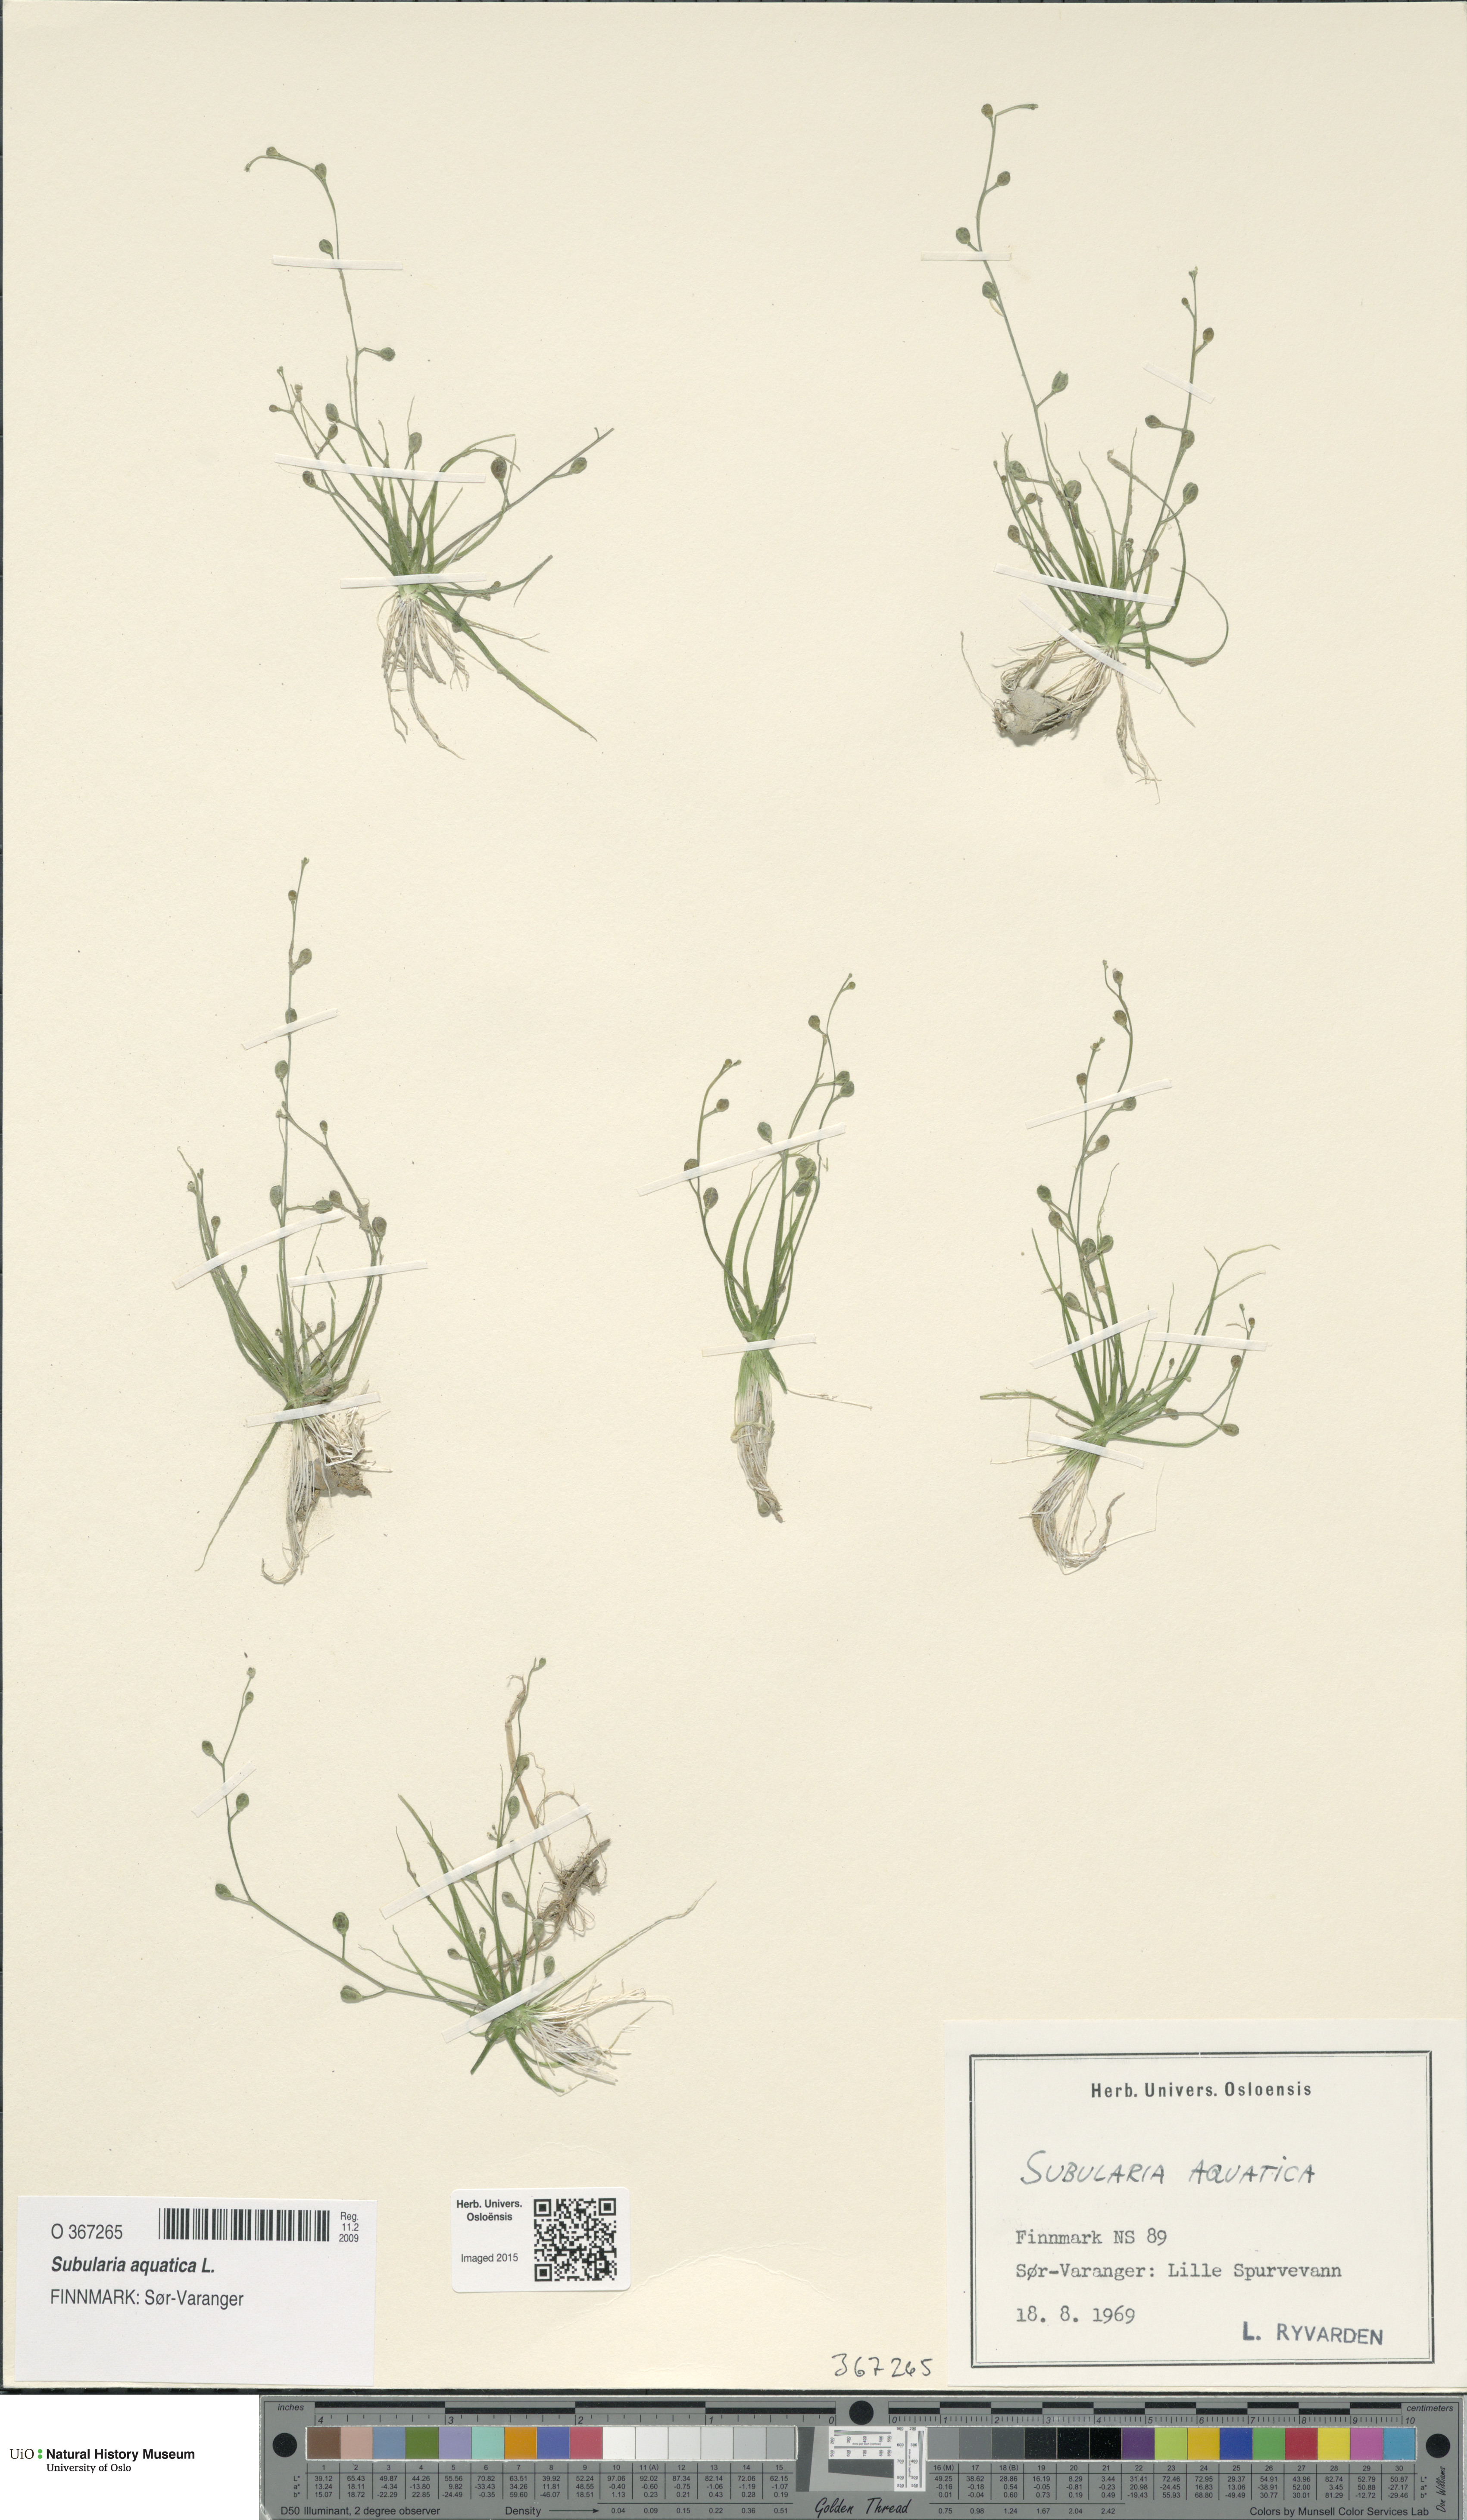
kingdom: Plantae
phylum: Tracheophyta
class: Magnoliopsida
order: Brassicales
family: Brassicaceae
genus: Subularia
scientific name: Subularia aquatica
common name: Awlwort
